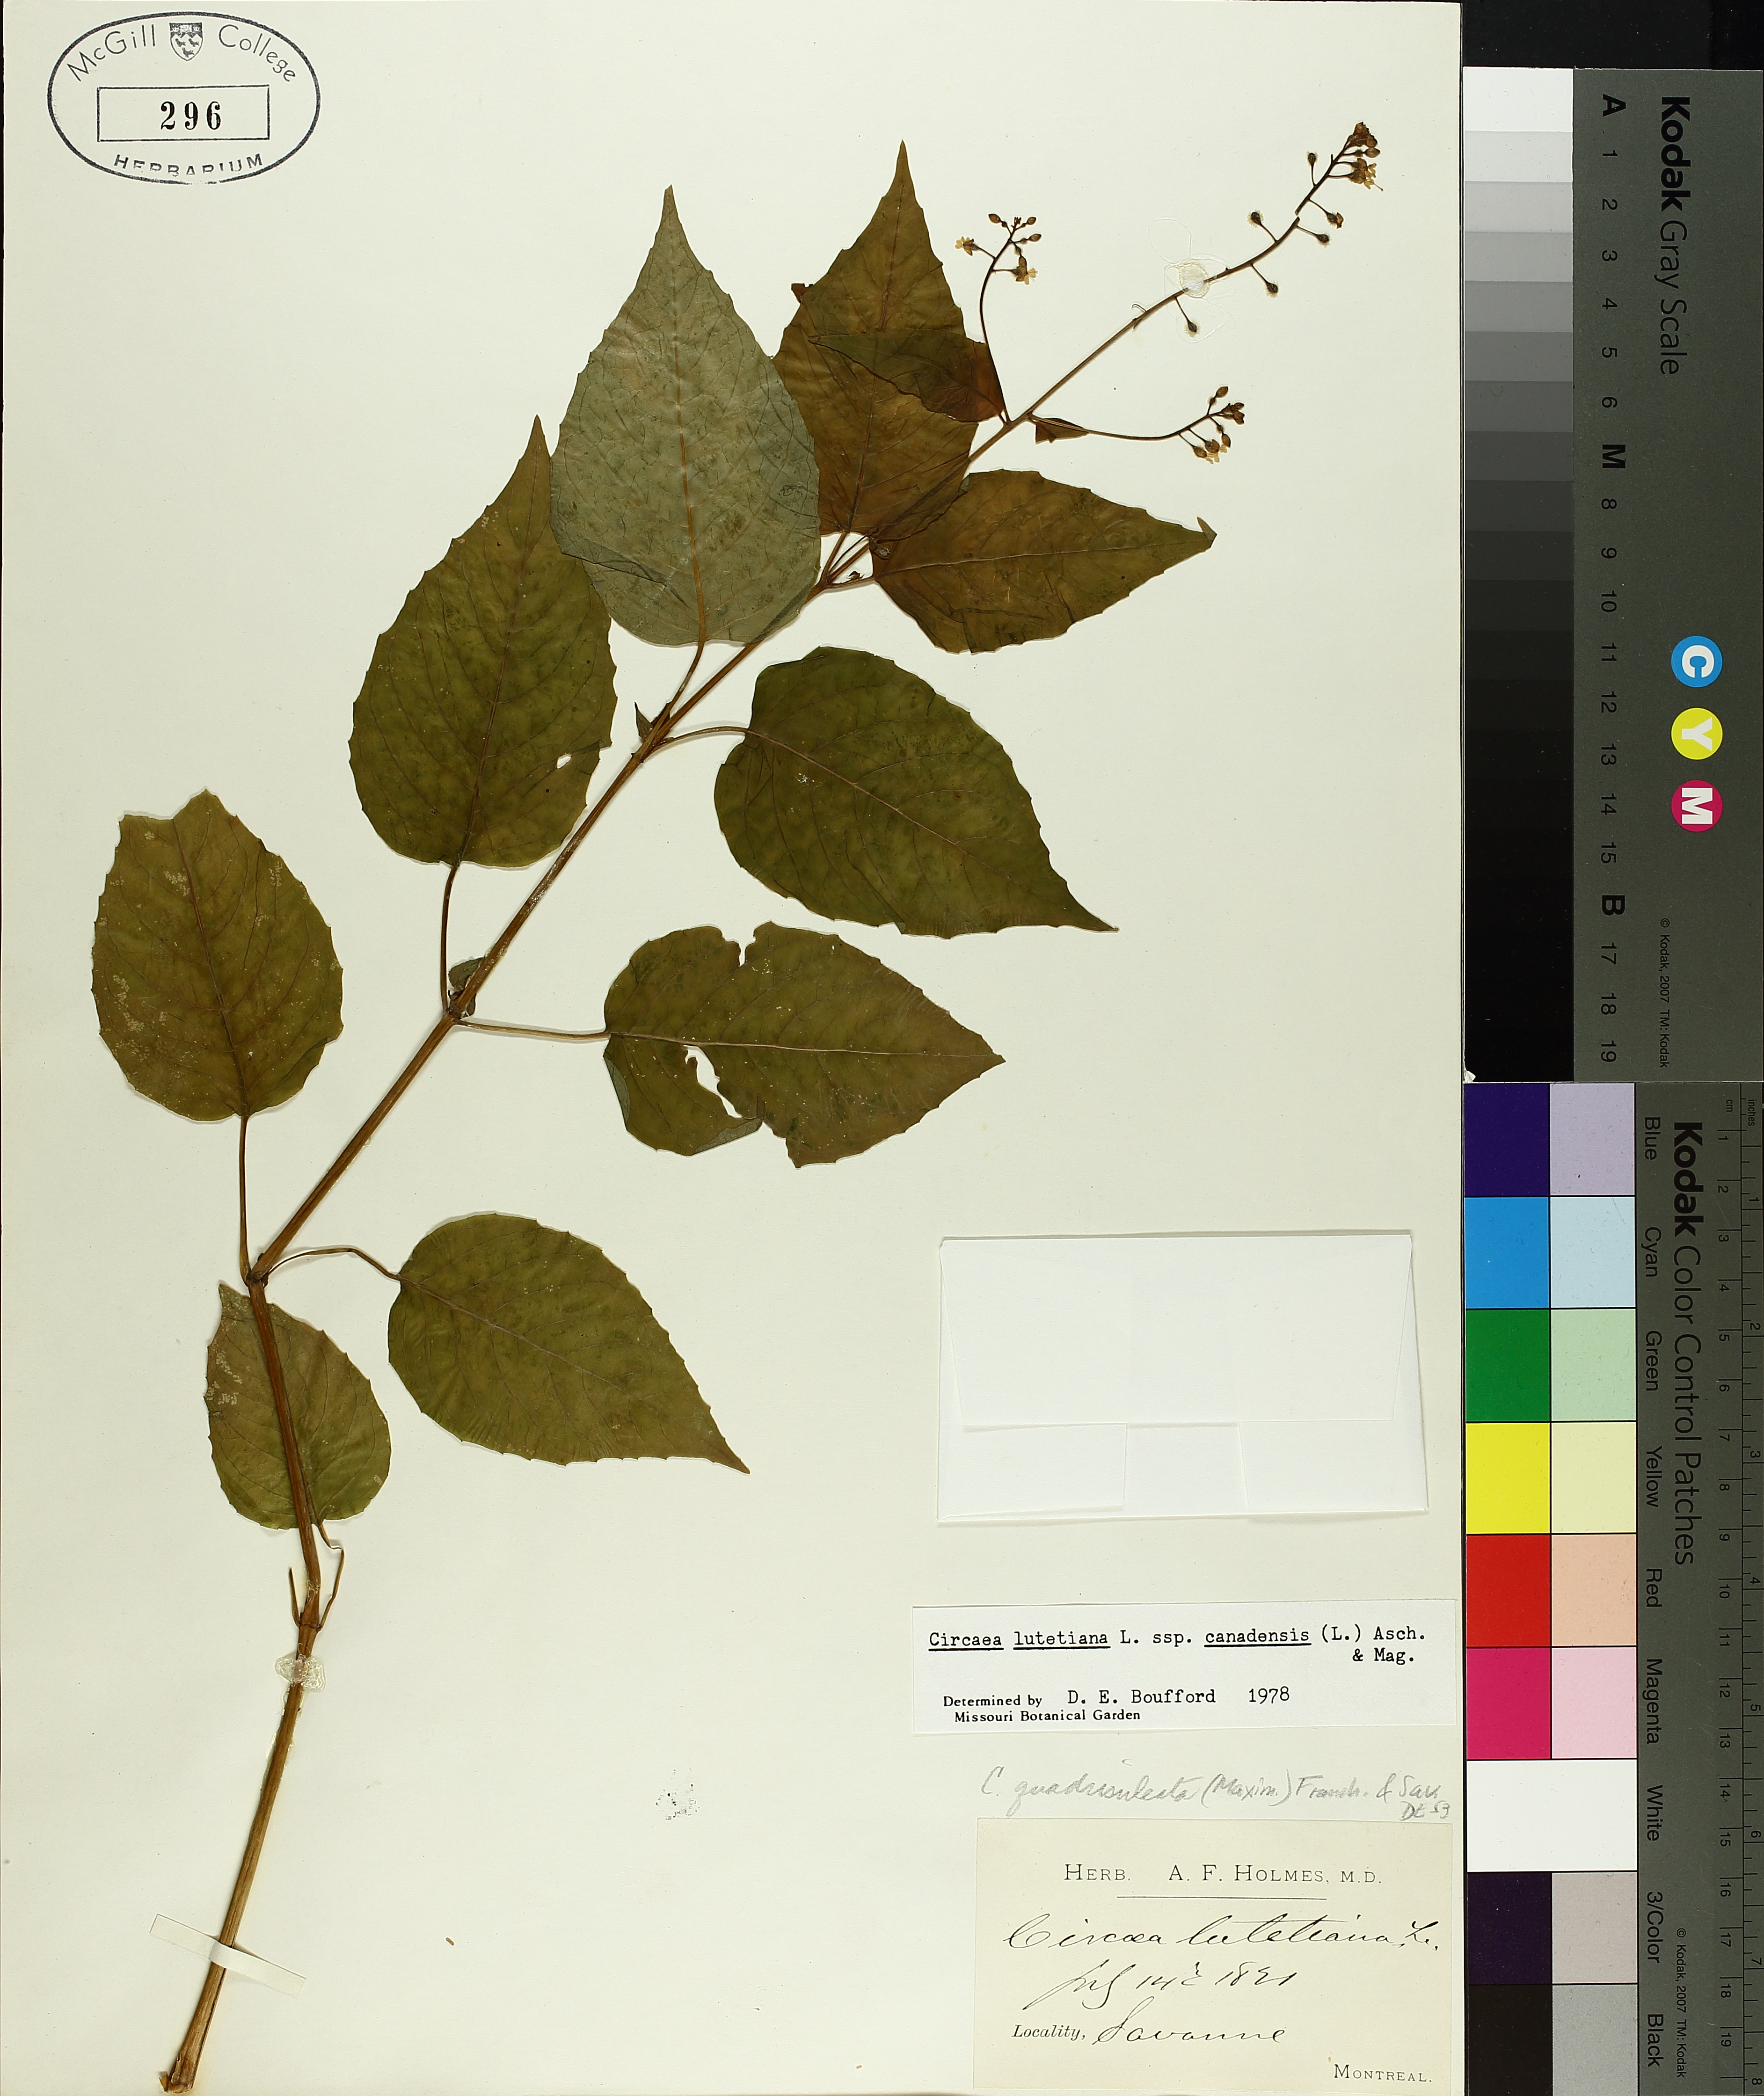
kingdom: Plantae
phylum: Tracheophyta
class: Magnoliopsida
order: Myrtales
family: Onagraceae
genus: Circaea
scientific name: Circaea lutetiana
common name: Enchanter's-nightshade
